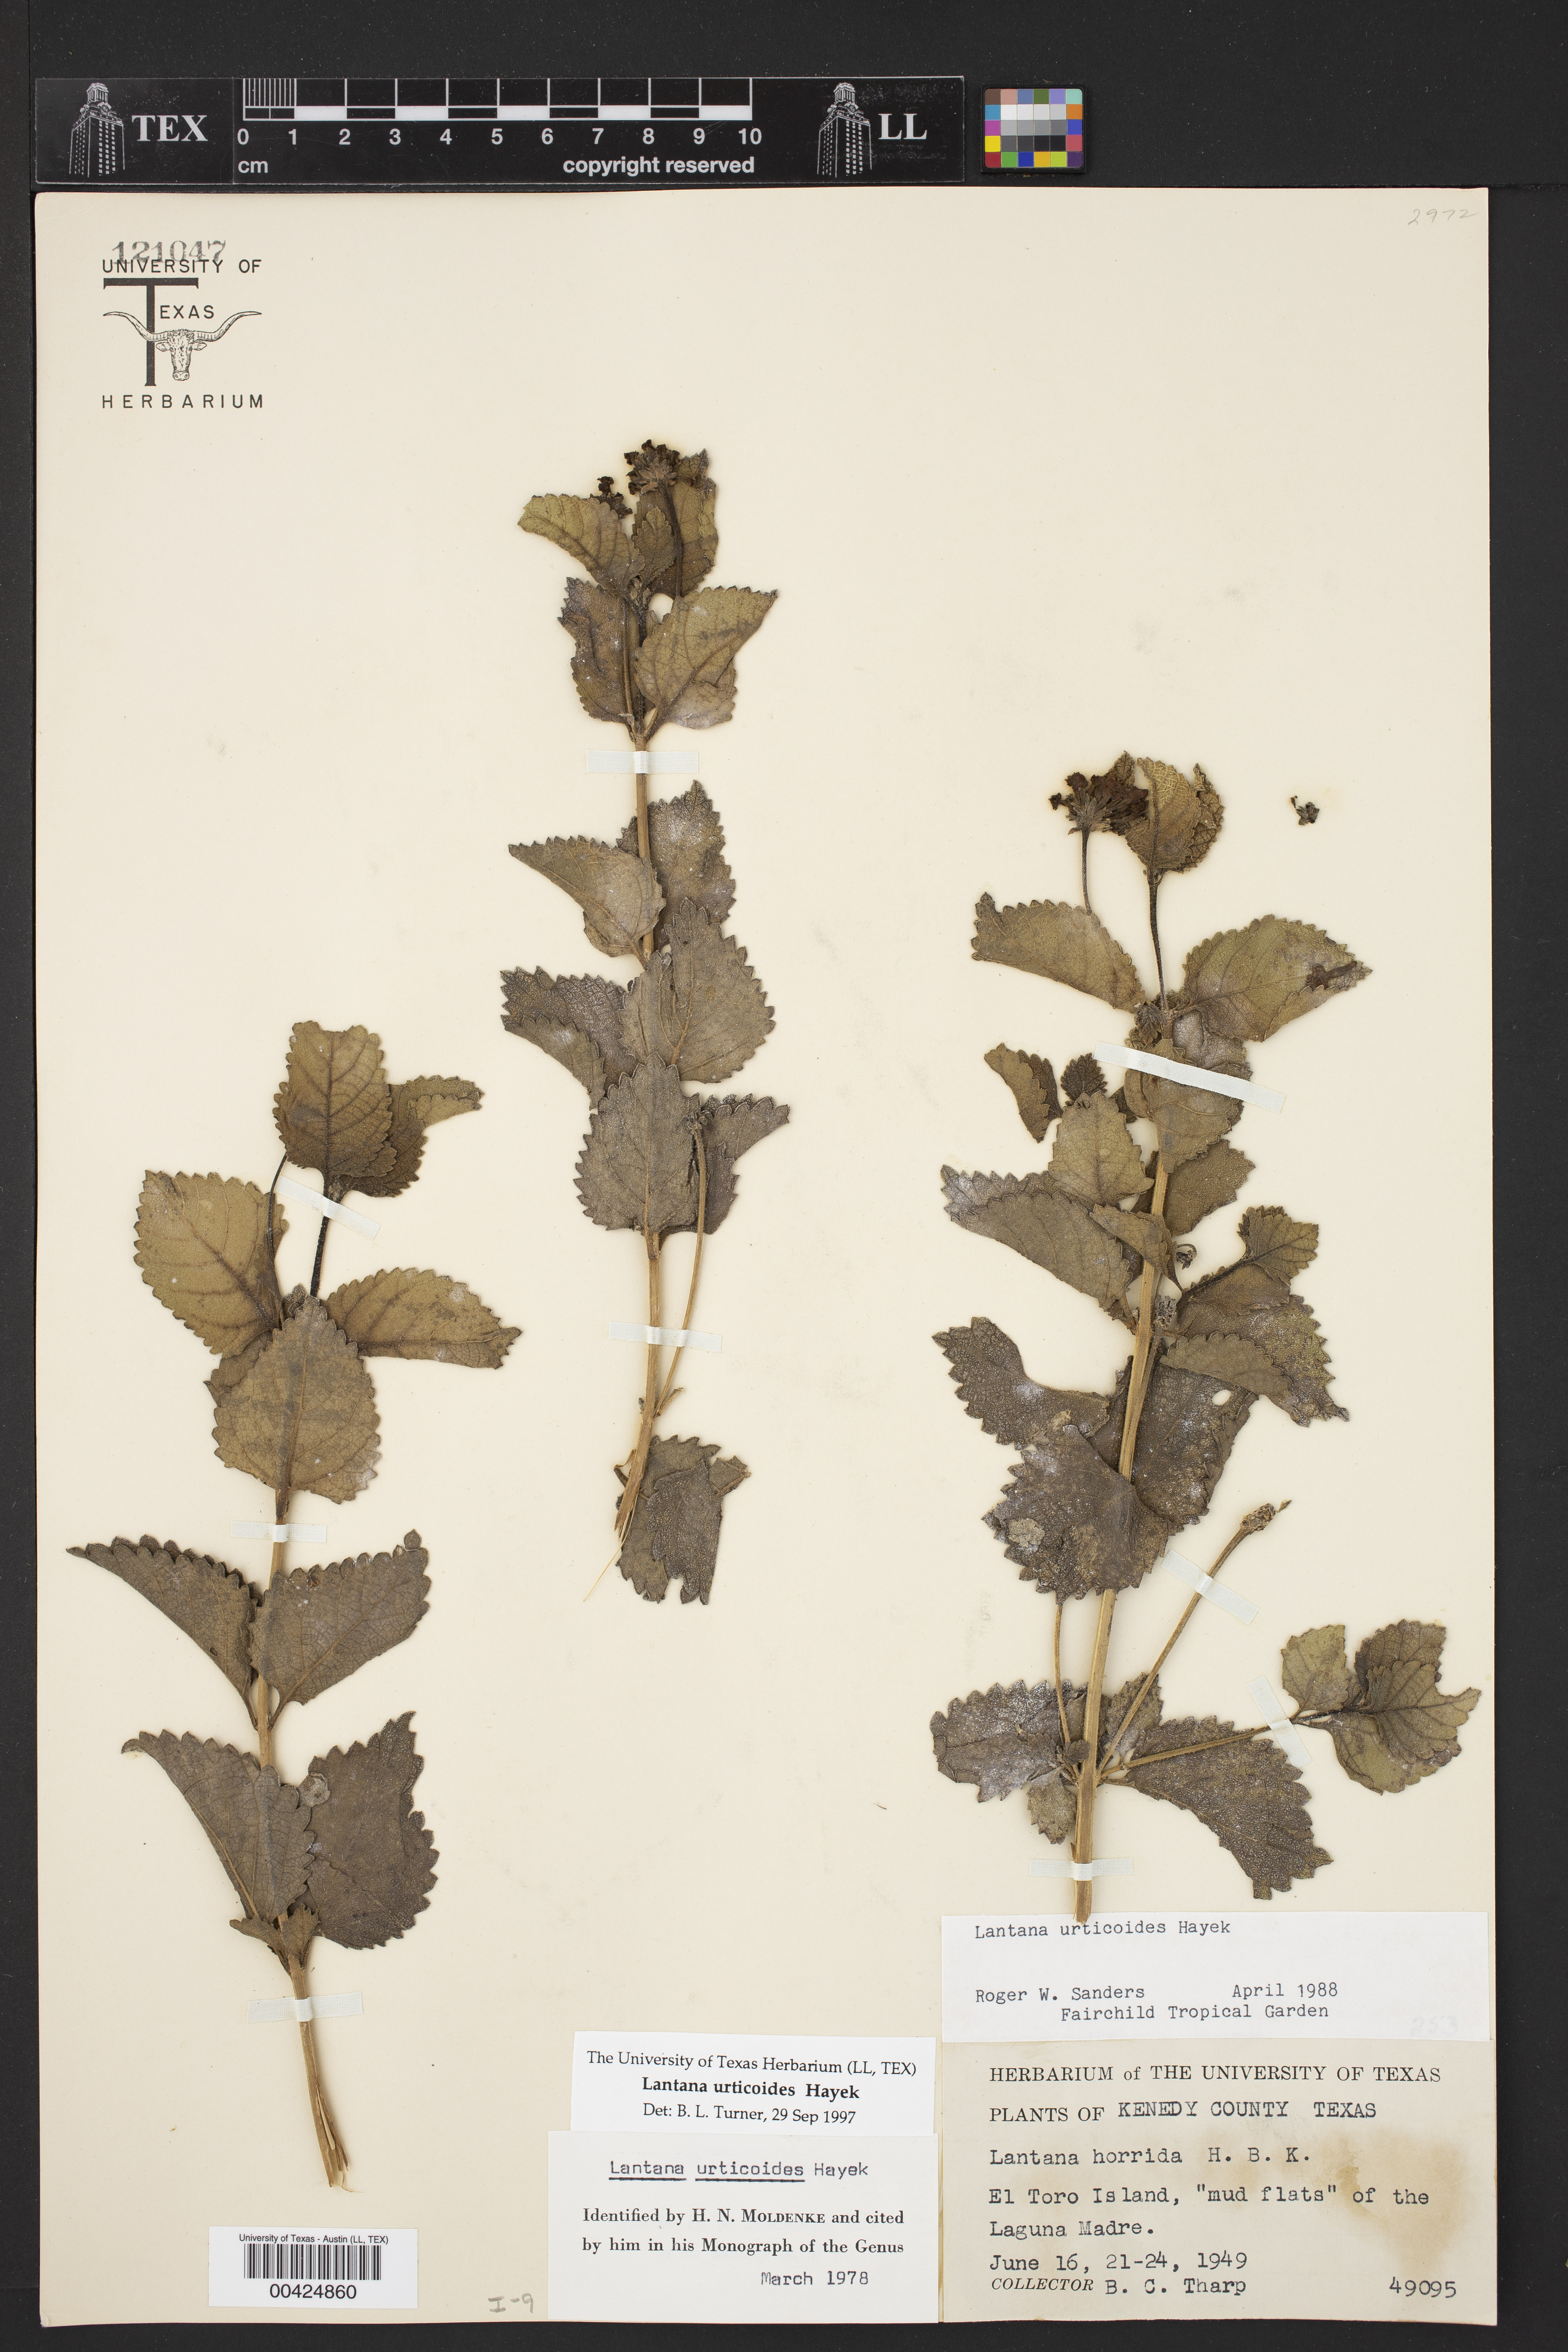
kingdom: Plantae
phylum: Tracheophyta
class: Magnoliopsida
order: Lamiales
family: Verbenaceae
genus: Lantana
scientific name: Lantana urticoides
